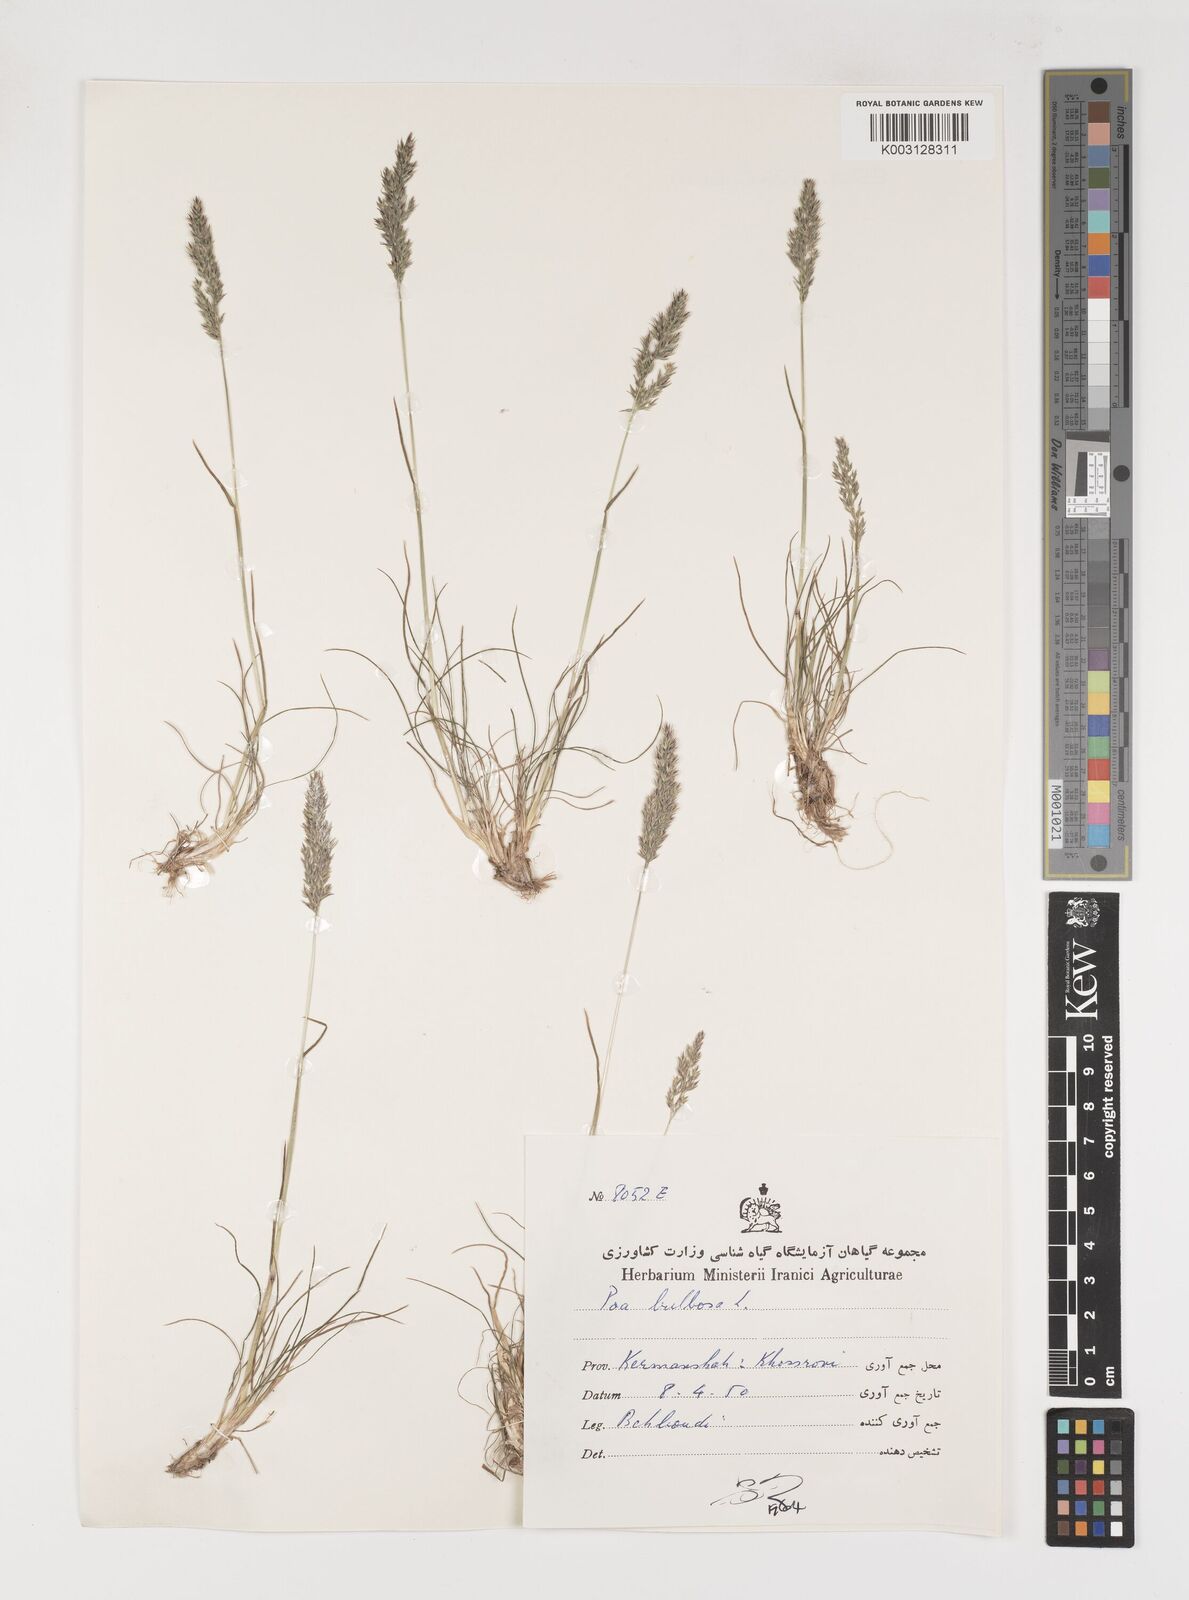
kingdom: Plantae
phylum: Tracheophyta
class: Liliopsida
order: Poales
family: Poaceae
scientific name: Poaceae
